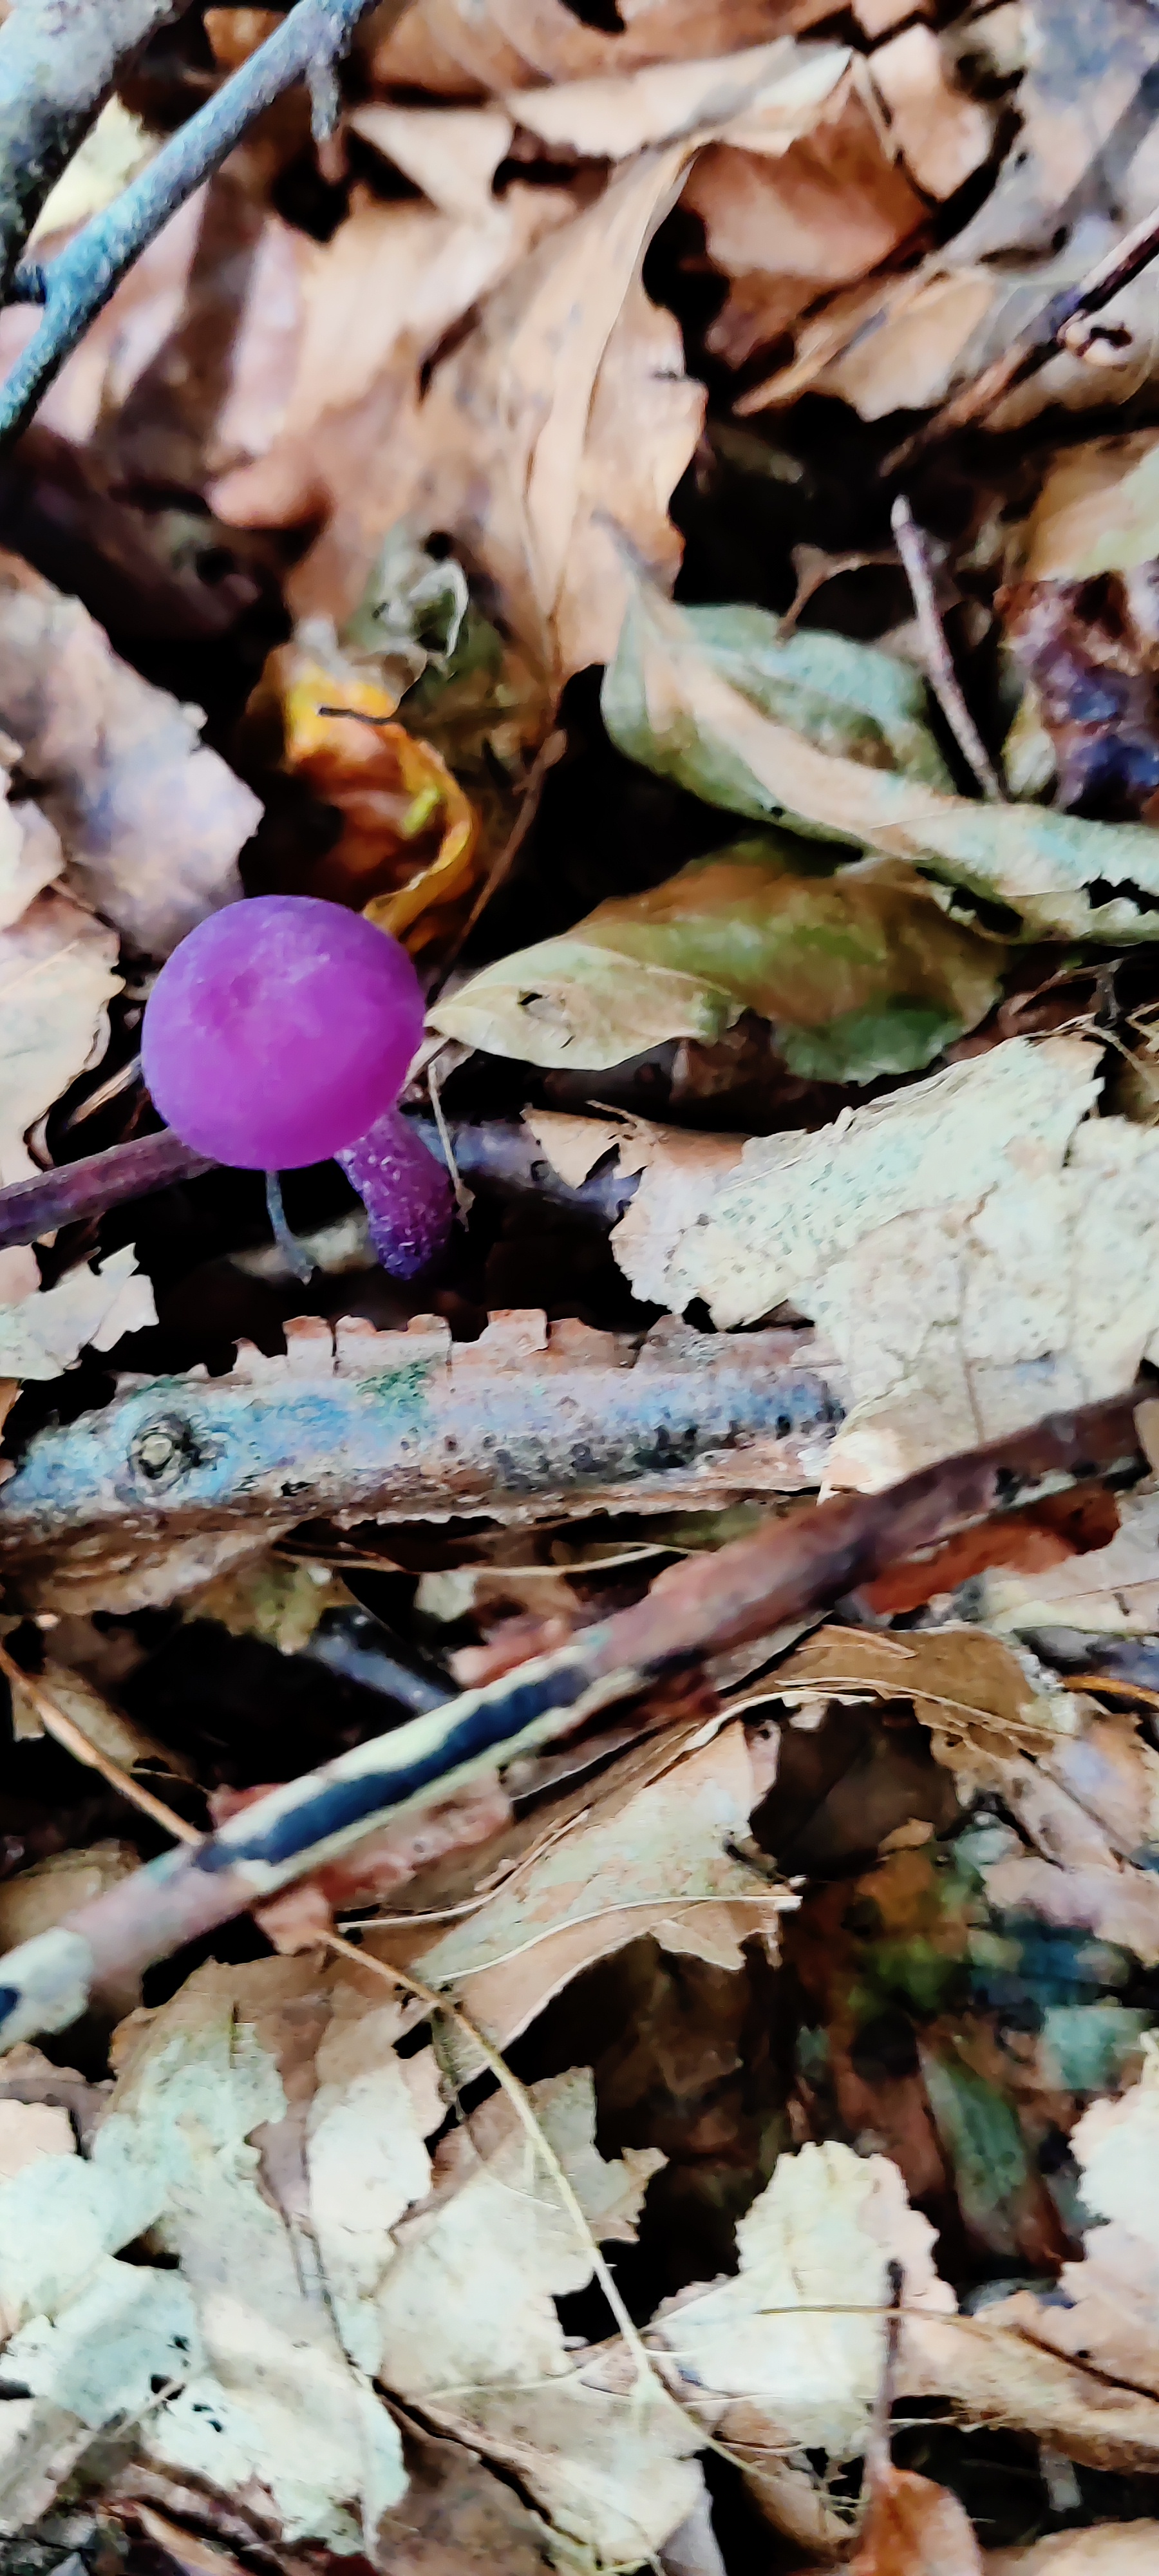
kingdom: Fungi
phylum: Basidiomycota
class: Agaricomycetes
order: Agaricales
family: Hydnangiaceae
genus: Laccaria
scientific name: Laccaria amethystina
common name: Violet ametysthat
